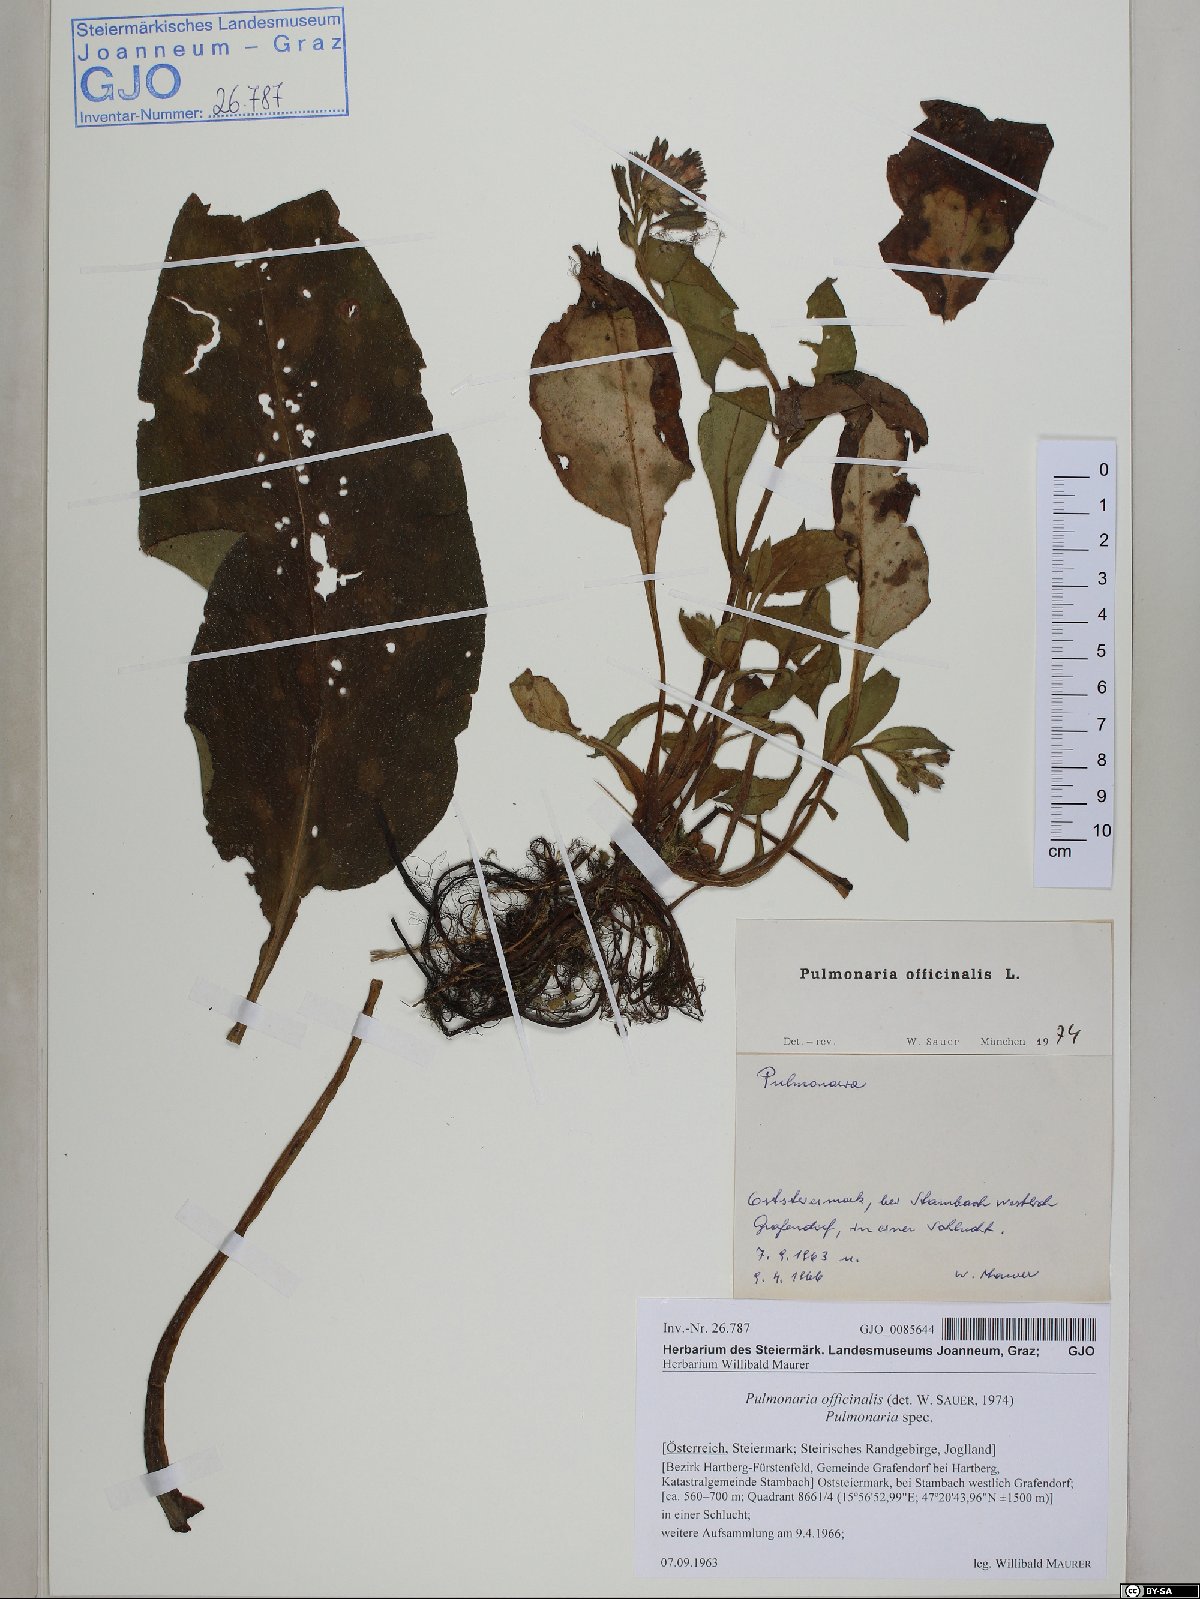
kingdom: Plantae
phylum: Tracheophyta
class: Magnoliopsida
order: Boraginales
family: Boraginaceae
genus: Pulmonaria
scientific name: Pulmonaria officinalis
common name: Lungwort
